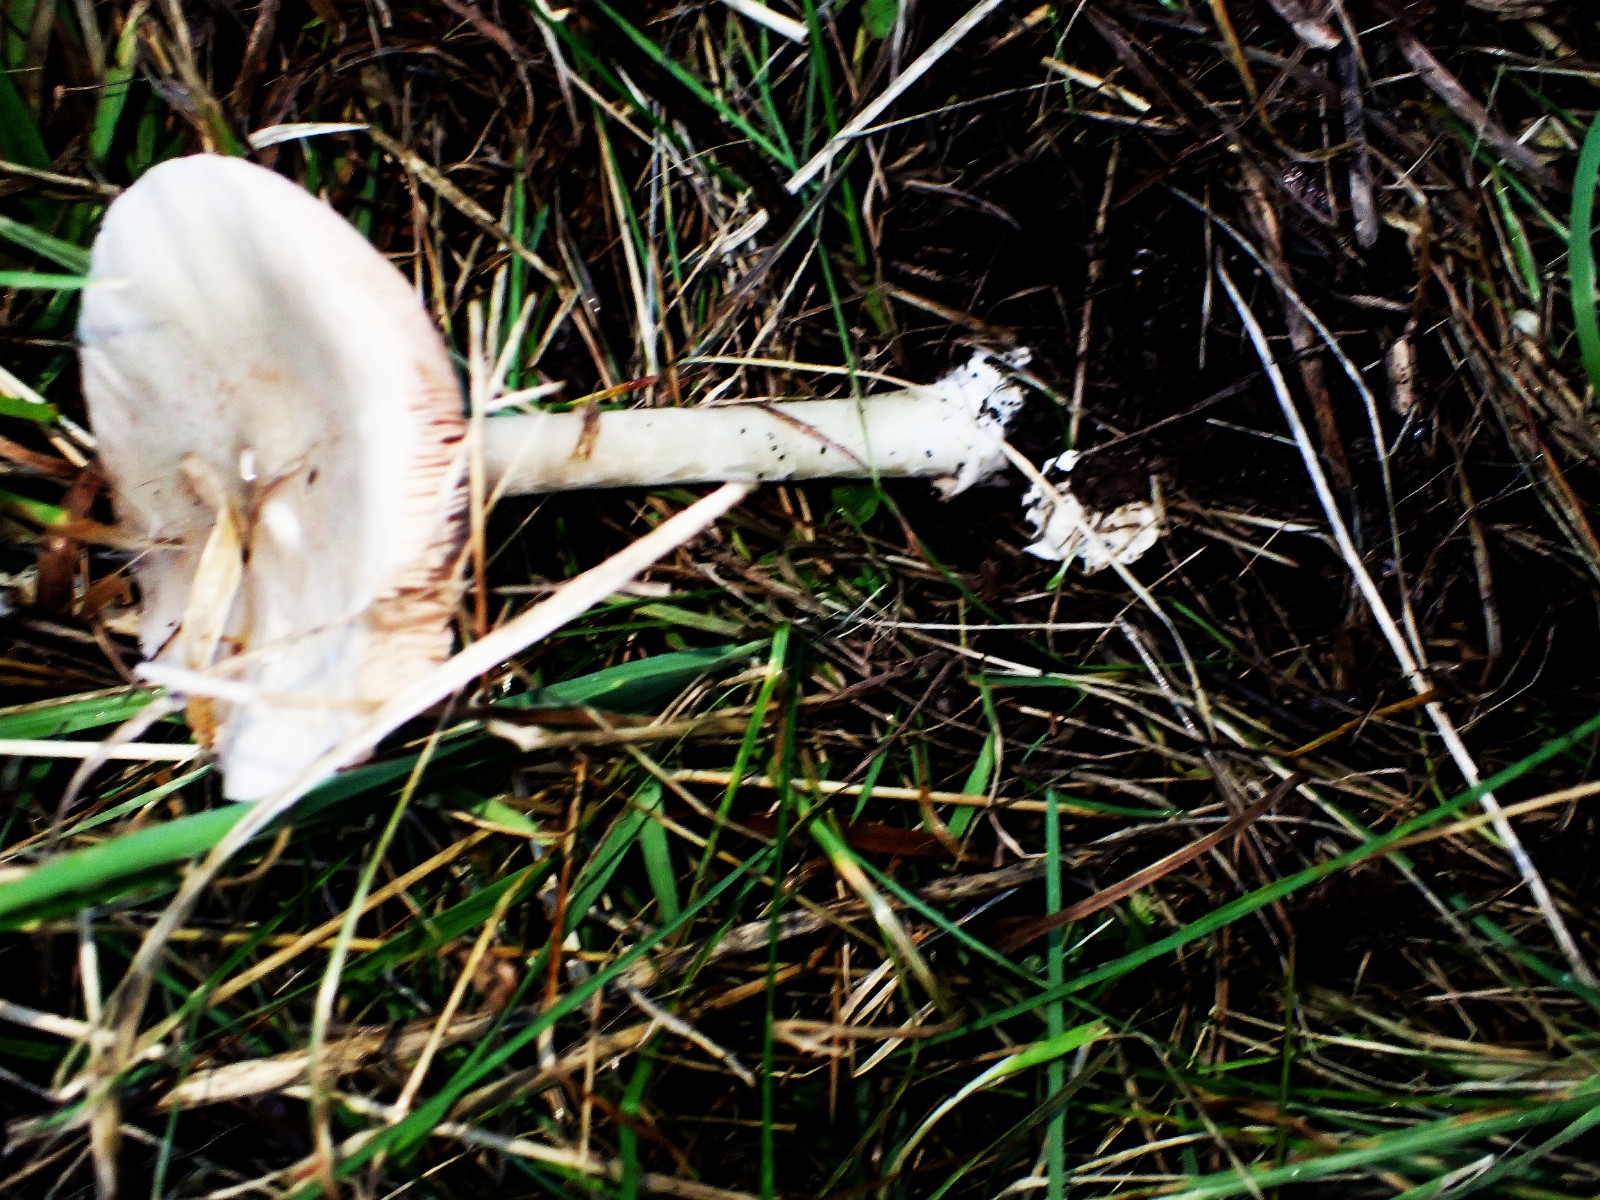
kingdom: Fungi
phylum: Basidiomycota
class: Agaricomycetes
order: Agaricales
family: Pluteaceae
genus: Volvopluteus
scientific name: Volvopluteus gloiocephalus
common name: høj posesvamp
